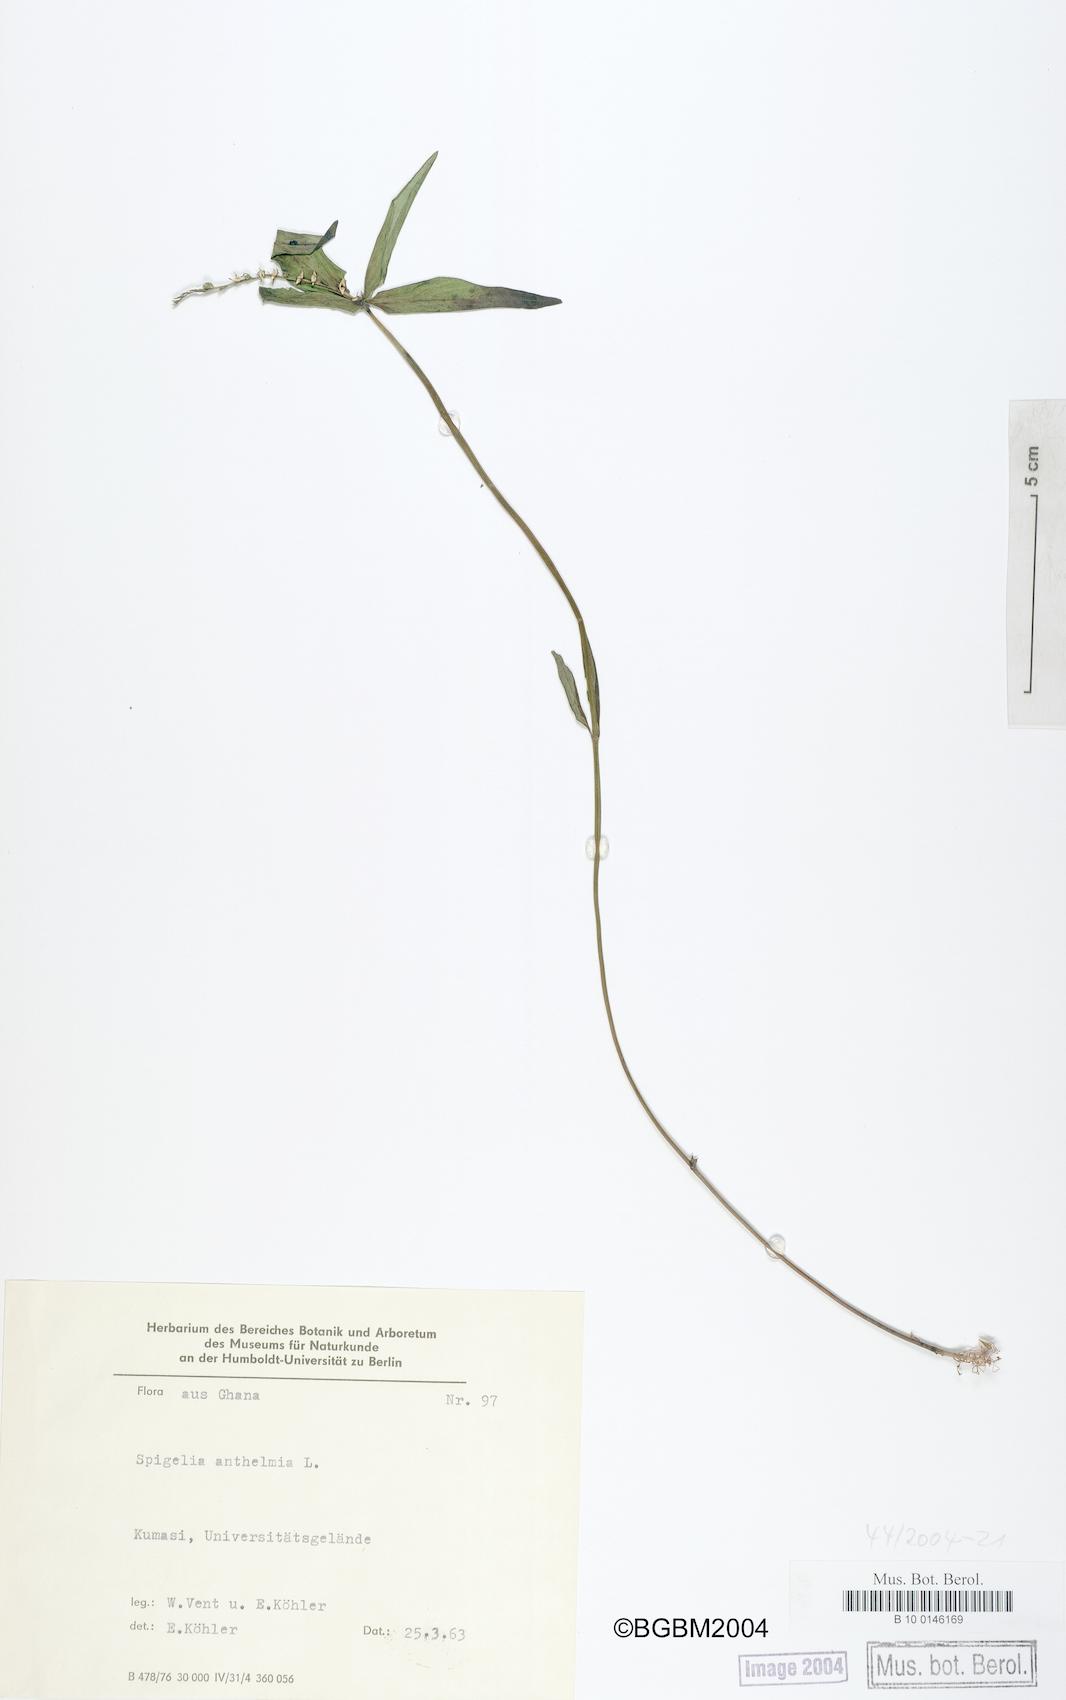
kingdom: Plantae
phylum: Tracheophyta
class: Magnoliopsida
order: Gentianales
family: Loganiaceae
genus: Spigelia
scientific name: Spigelia anthelmia
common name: West indian-pink
